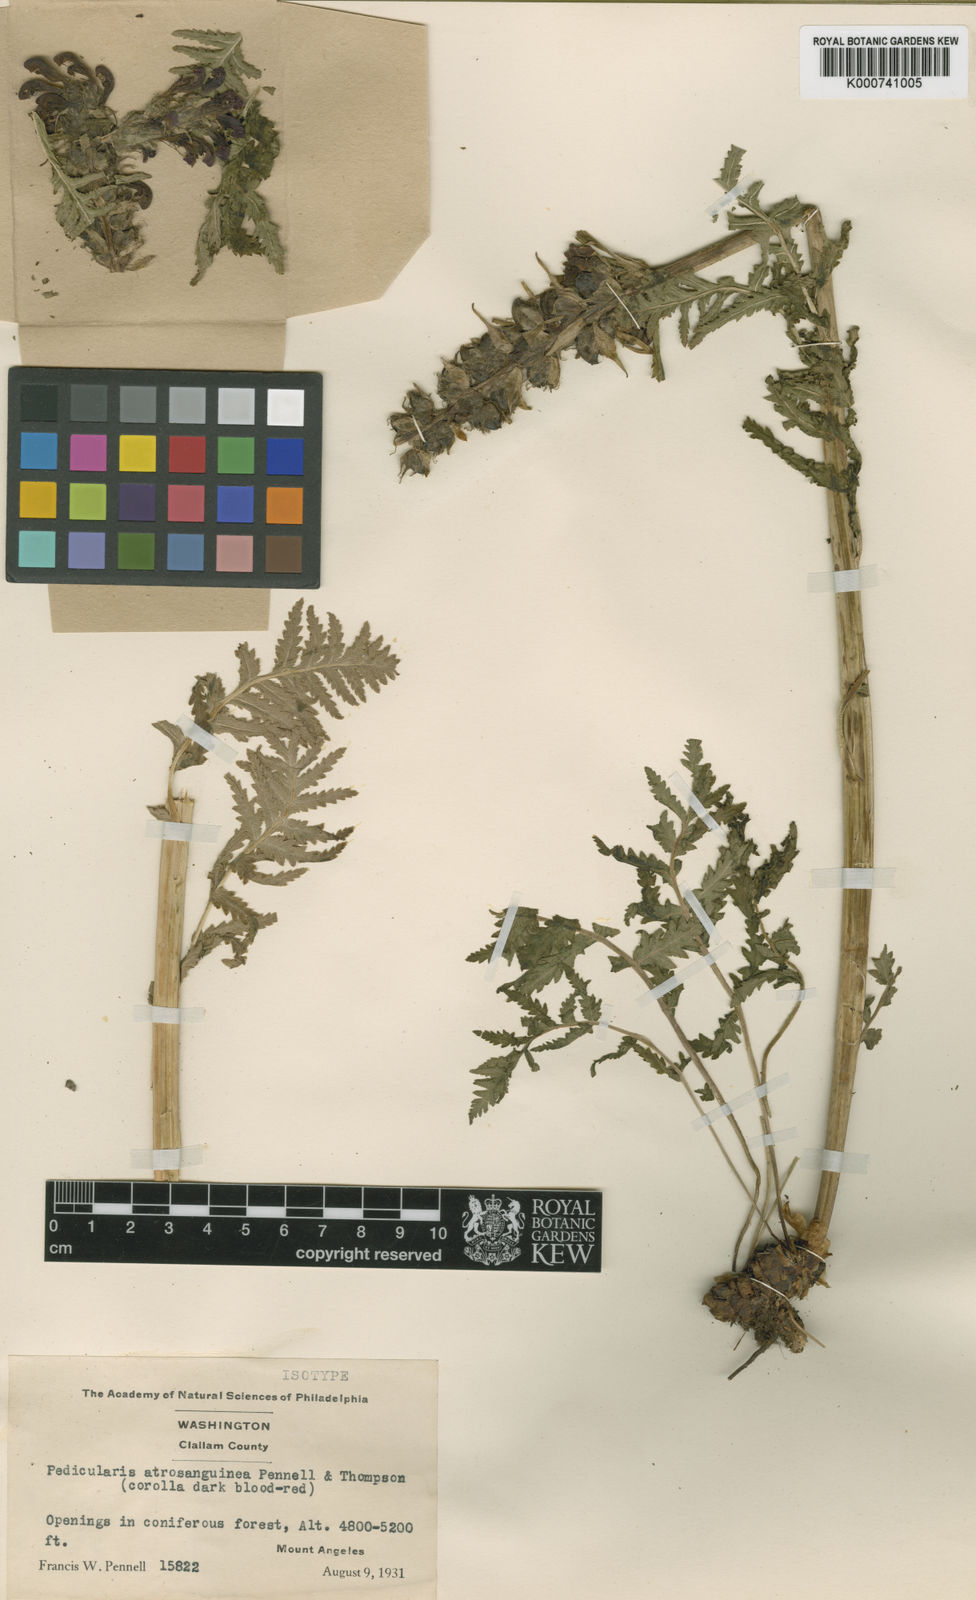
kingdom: Plantae
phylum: Tracheophyta
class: Magnoliopsida
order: Lamiales
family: Orobanchaceae
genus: Pedicularis
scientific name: Pedicularis bracteosa
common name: Bracted lousewort
